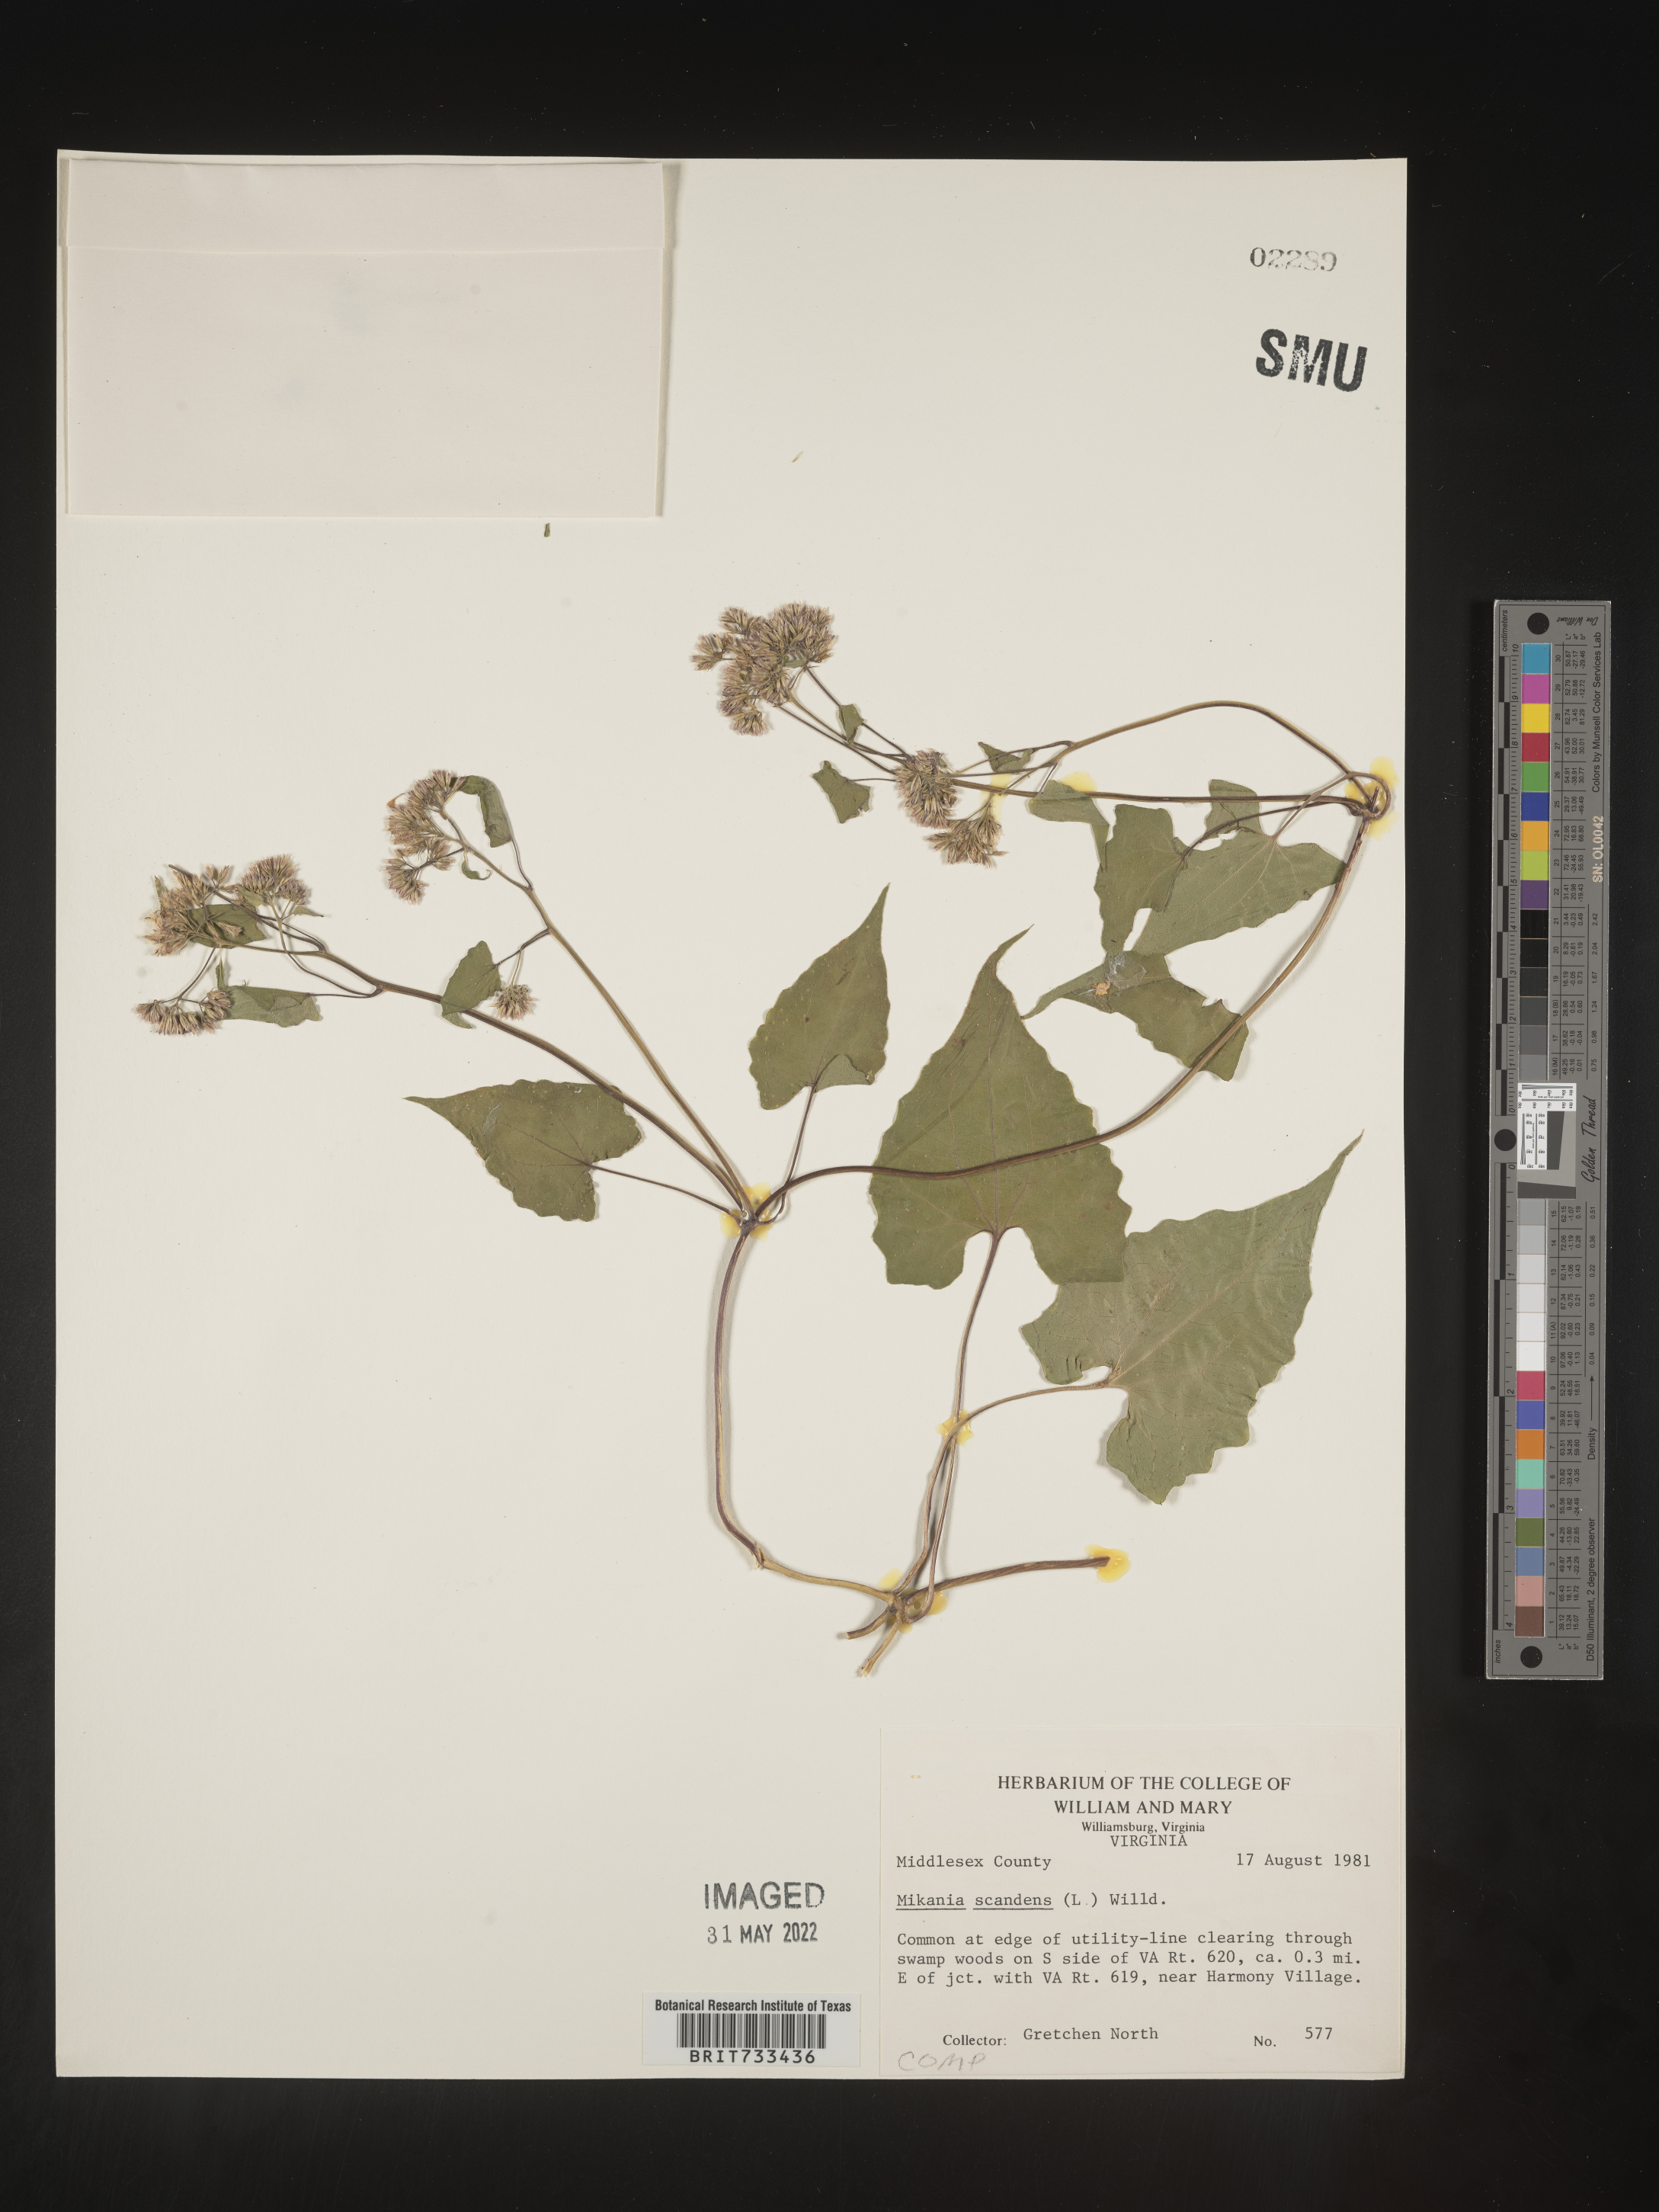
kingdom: Plantae
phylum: Tracheophyta
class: Magnoliopsida
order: Asterales
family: Asteraceae
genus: Mikania
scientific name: Mikania scandens
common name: Climbing hempvine
